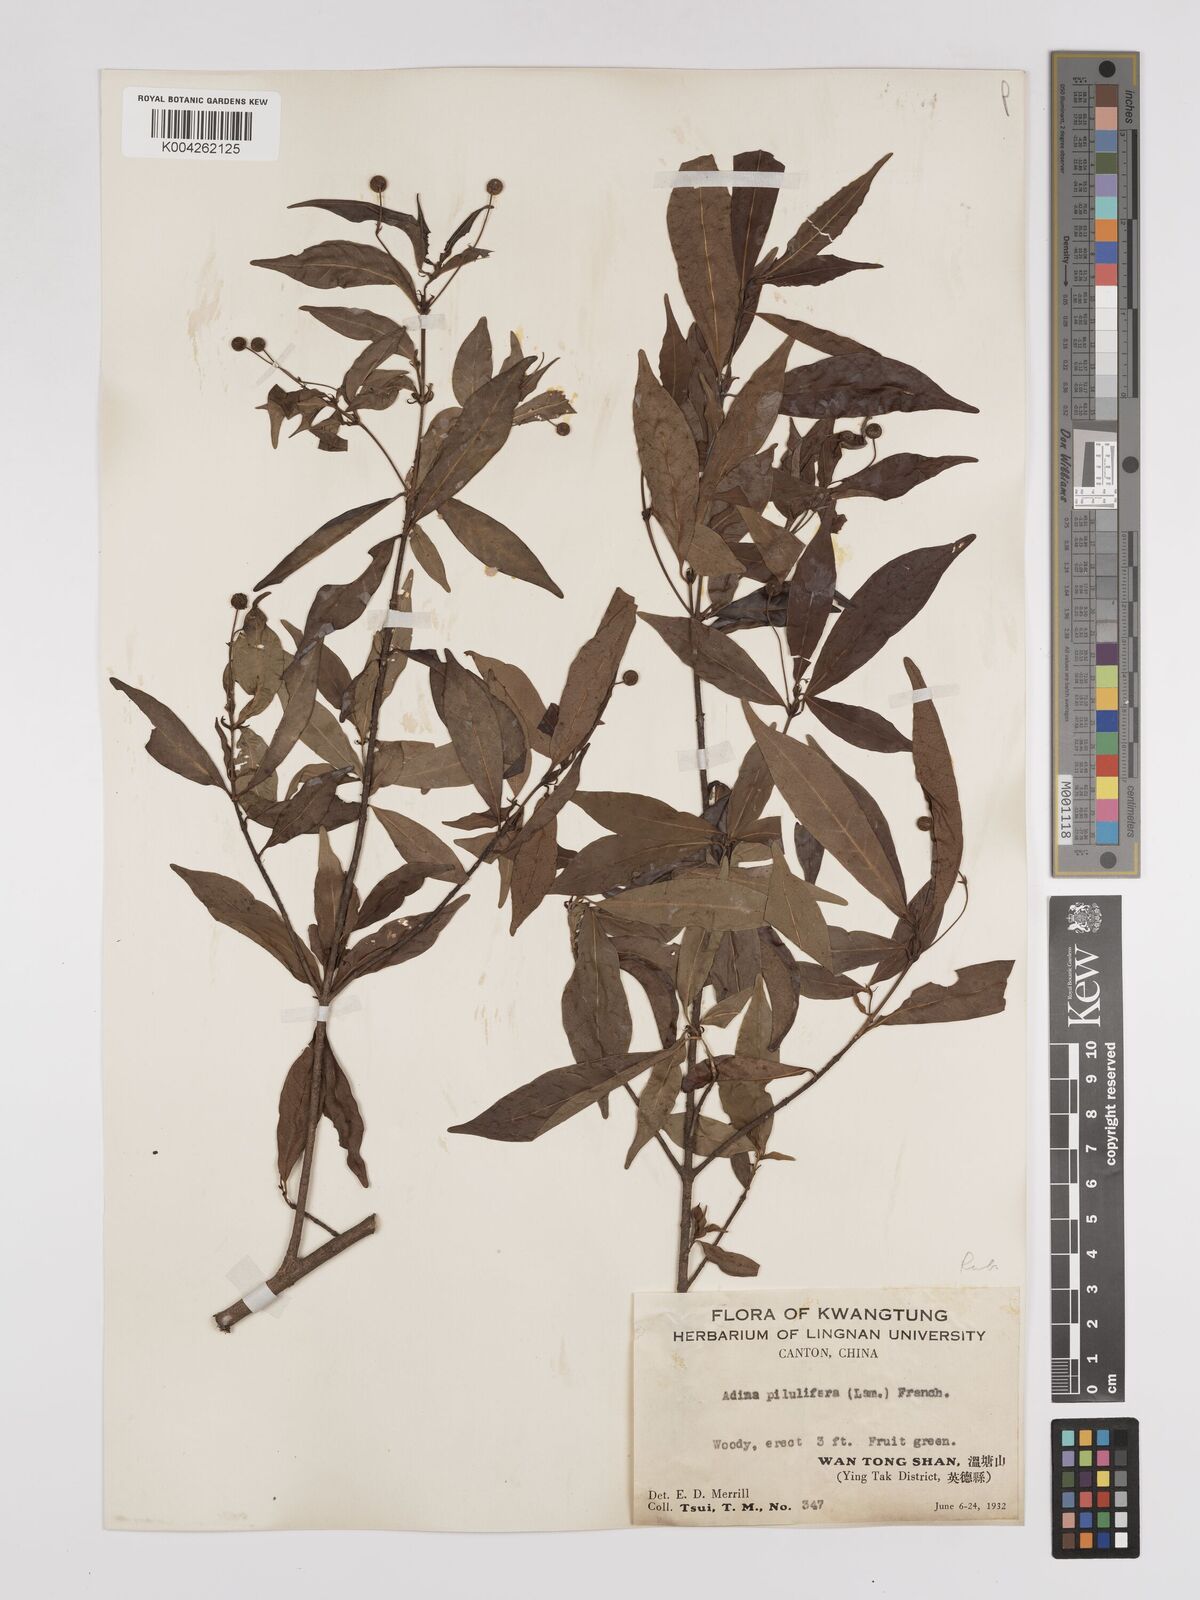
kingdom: Plantae
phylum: Tracheophyta
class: Magnoliopsida
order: Gentianales
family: Rubiaceae
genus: Adina
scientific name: Adina pilulifera
